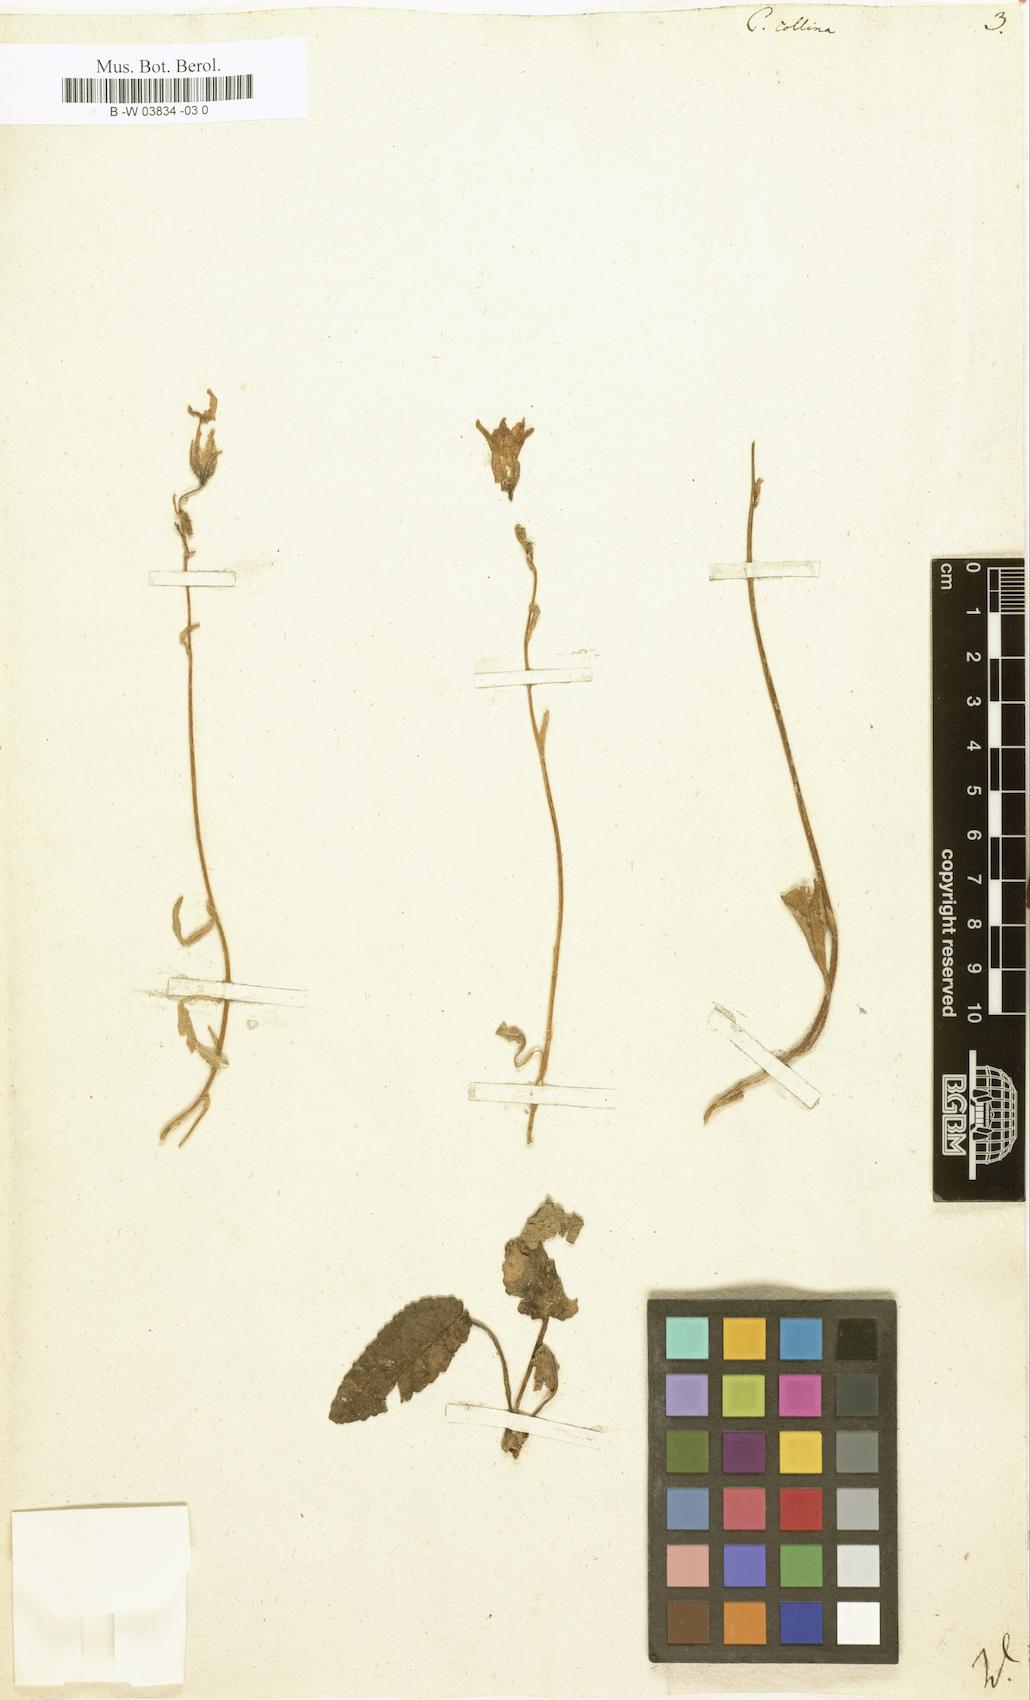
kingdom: Plantae
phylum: Tracheophyta
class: Magnoliopsida
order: Asterales
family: Campanulaceae
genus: Campanula
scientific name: Campanula collina
